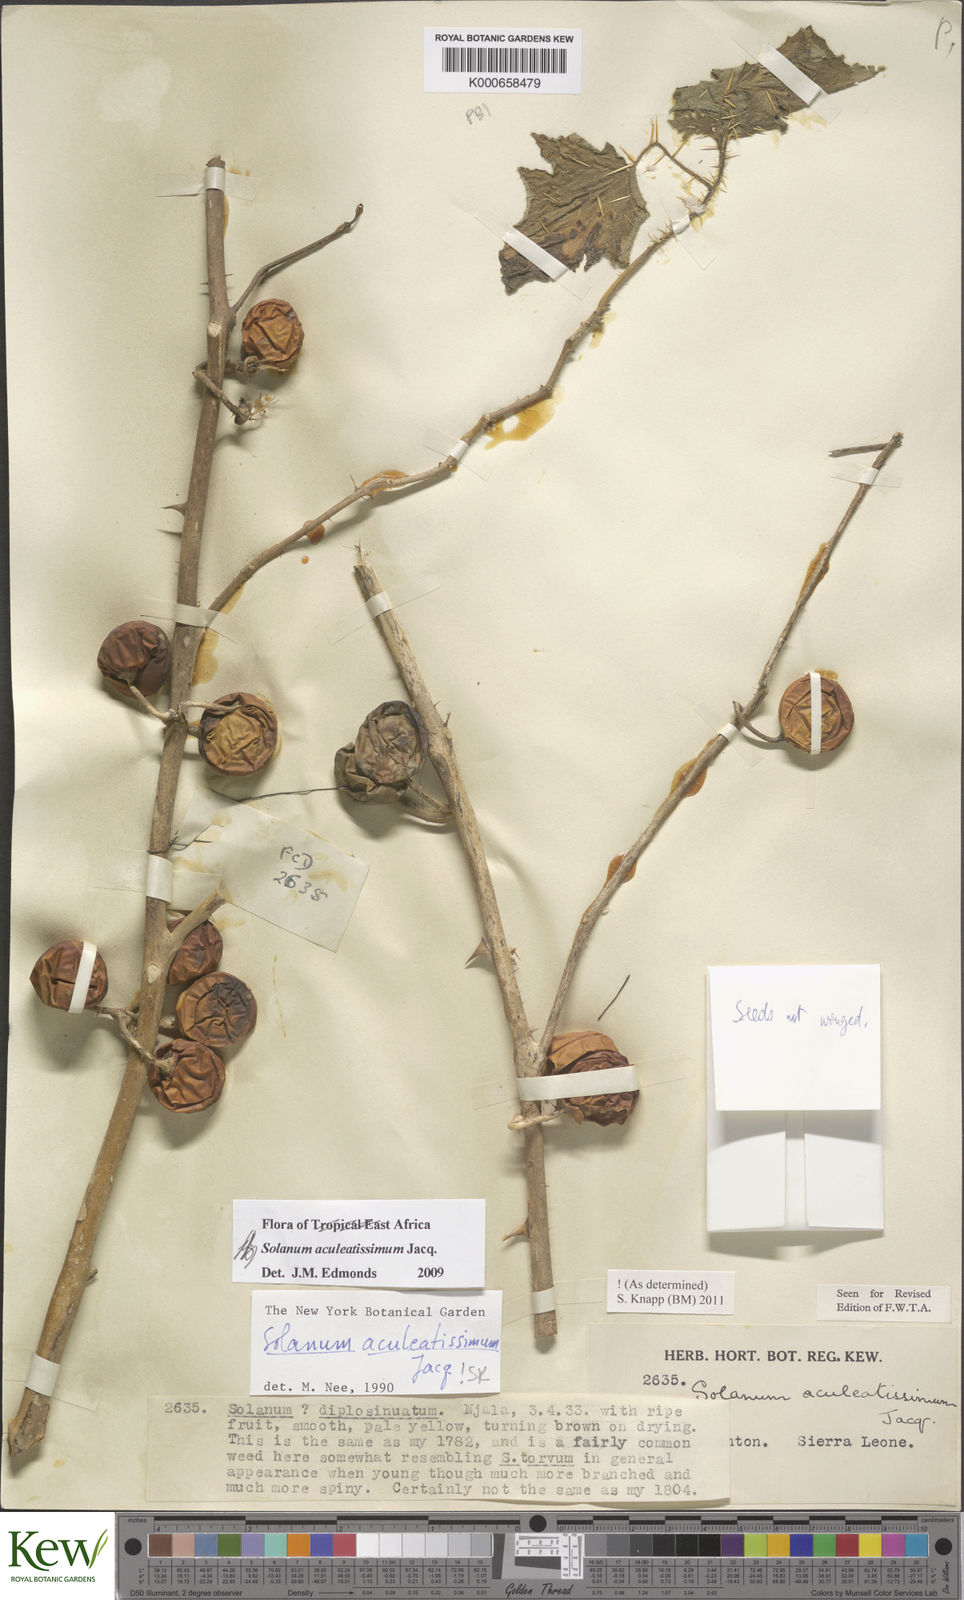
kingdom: Plantae
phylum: Tracheophyta
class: Magnoliopsida
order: Solanales
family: Solanaceae
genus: Solanum
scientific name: Solanum aculeatissimum
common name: Dutch eggplant
